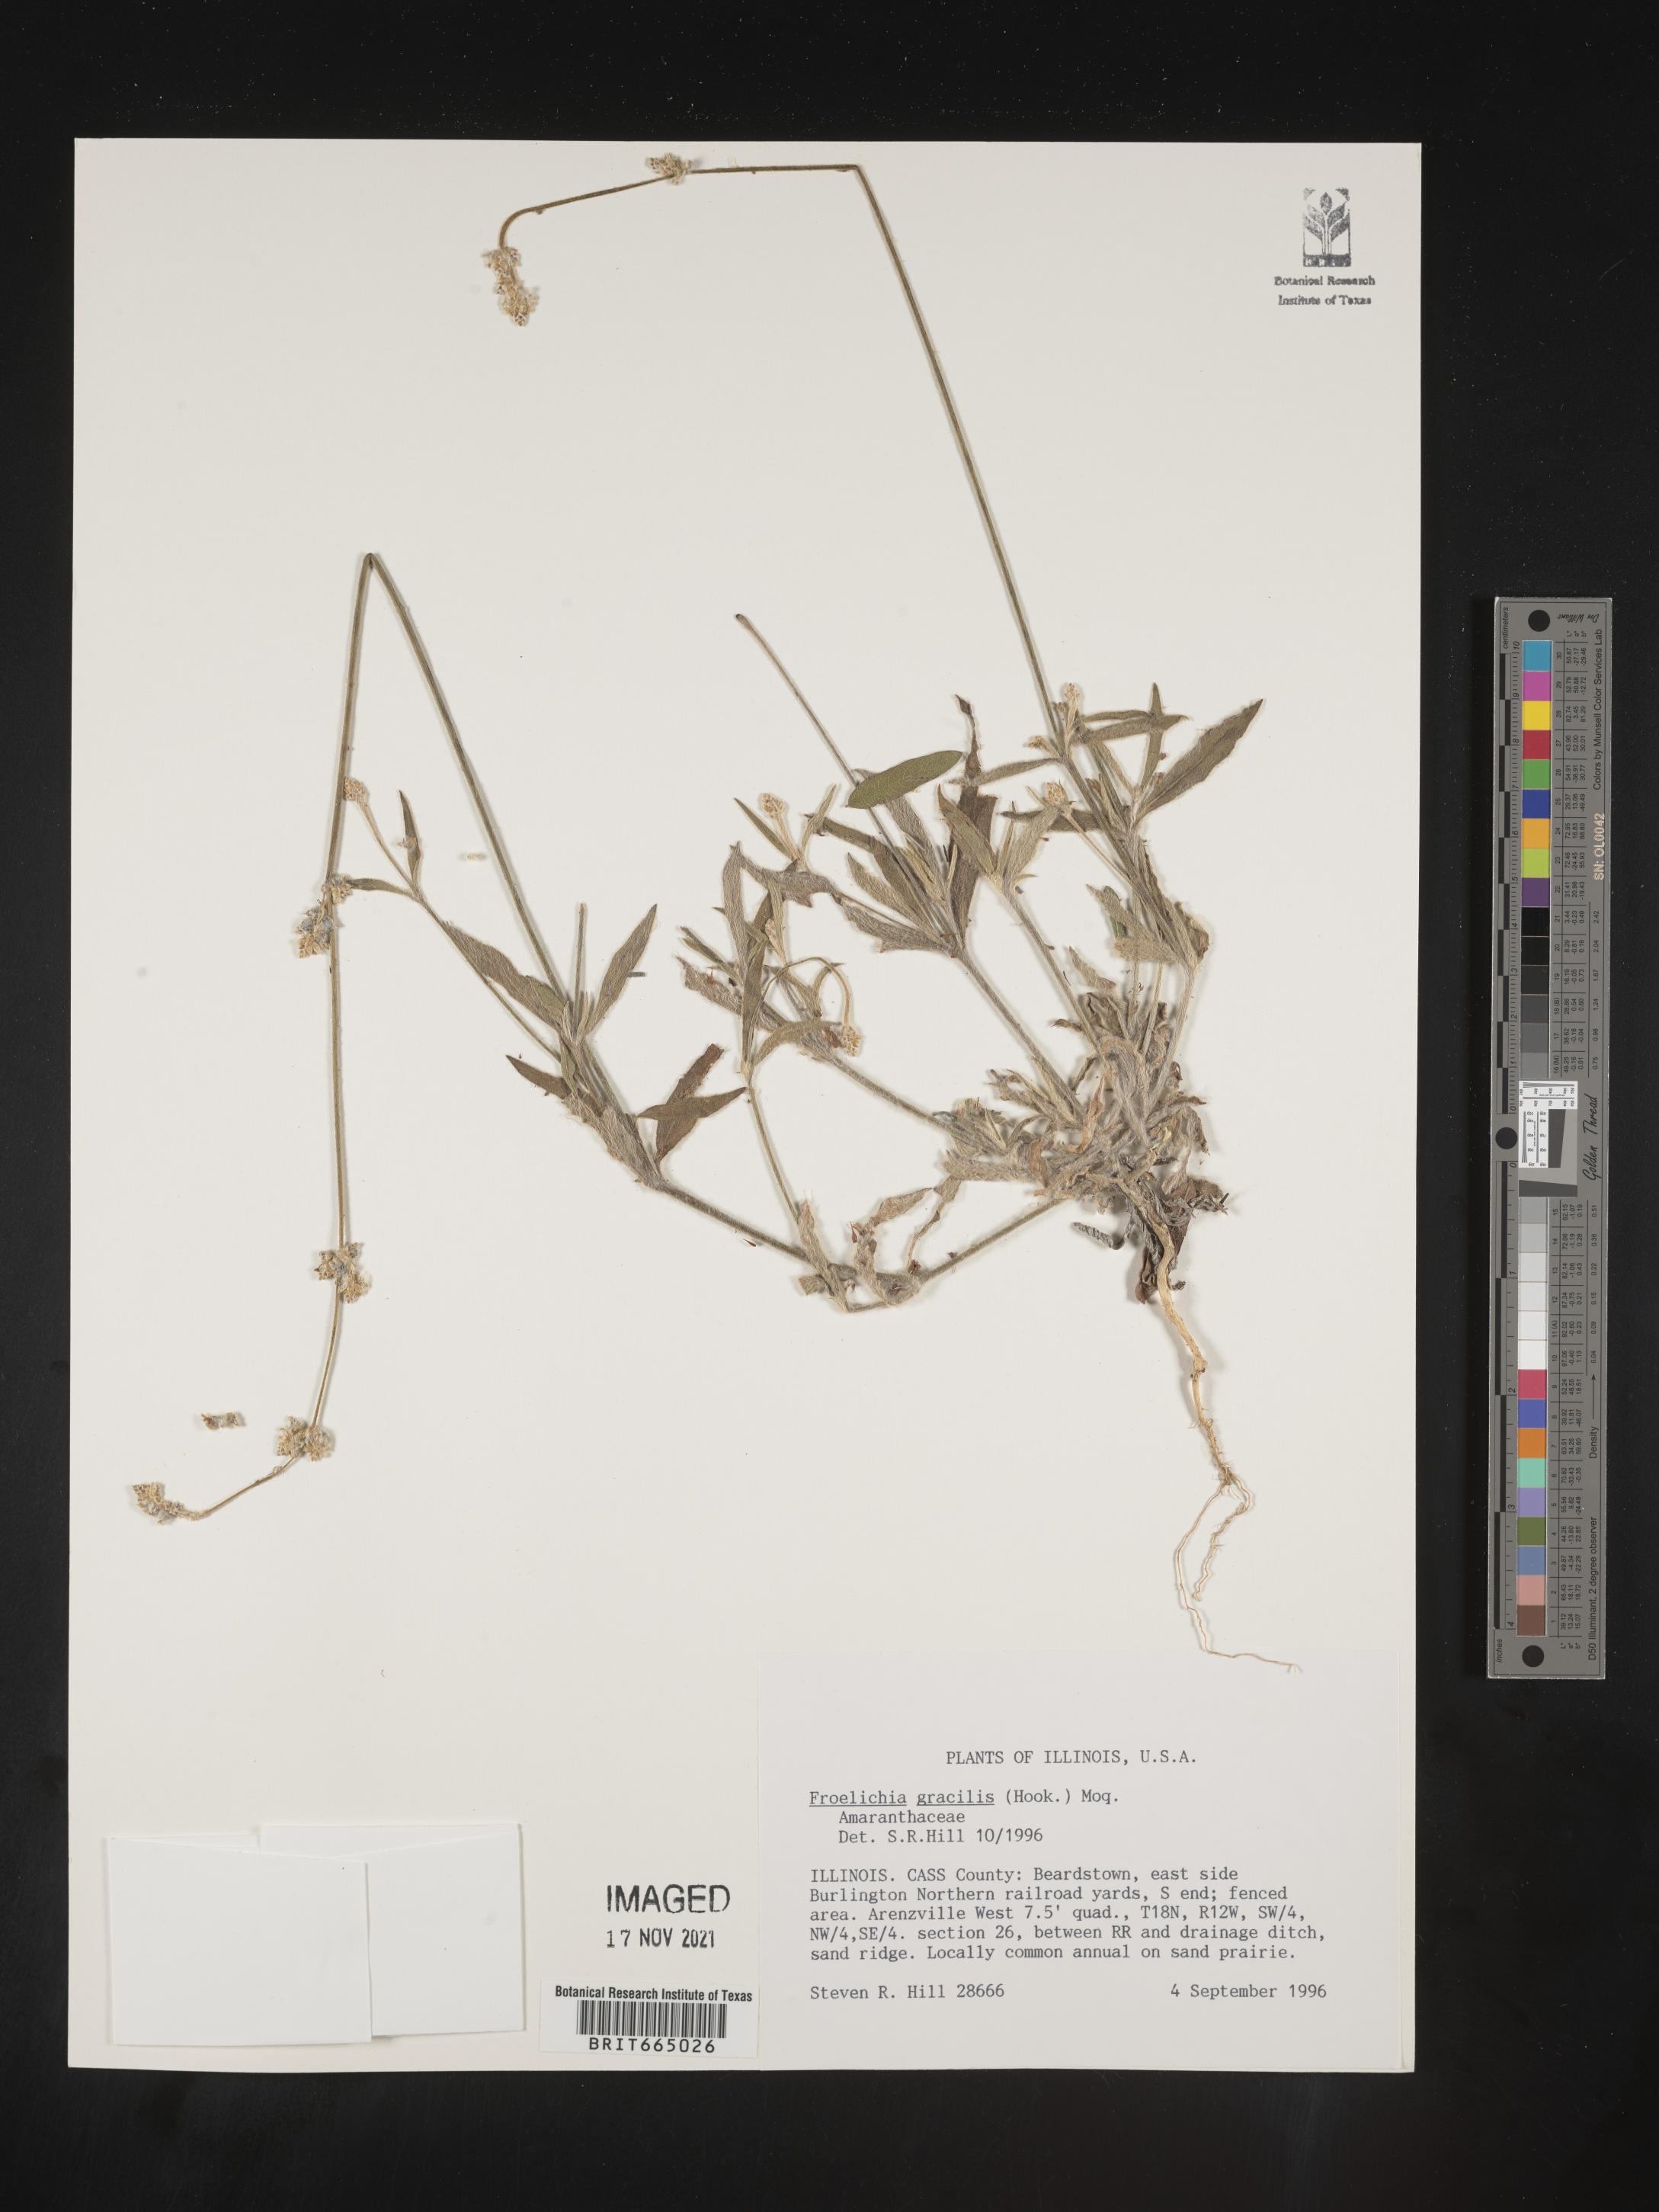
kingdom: Plantae
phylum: Tracheophyta
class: Magnoliopsida
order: Caryophyllales
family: Amaranthaceae
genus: Froelichia
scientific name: Froelichia gracilis
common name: Slender cottonweed
